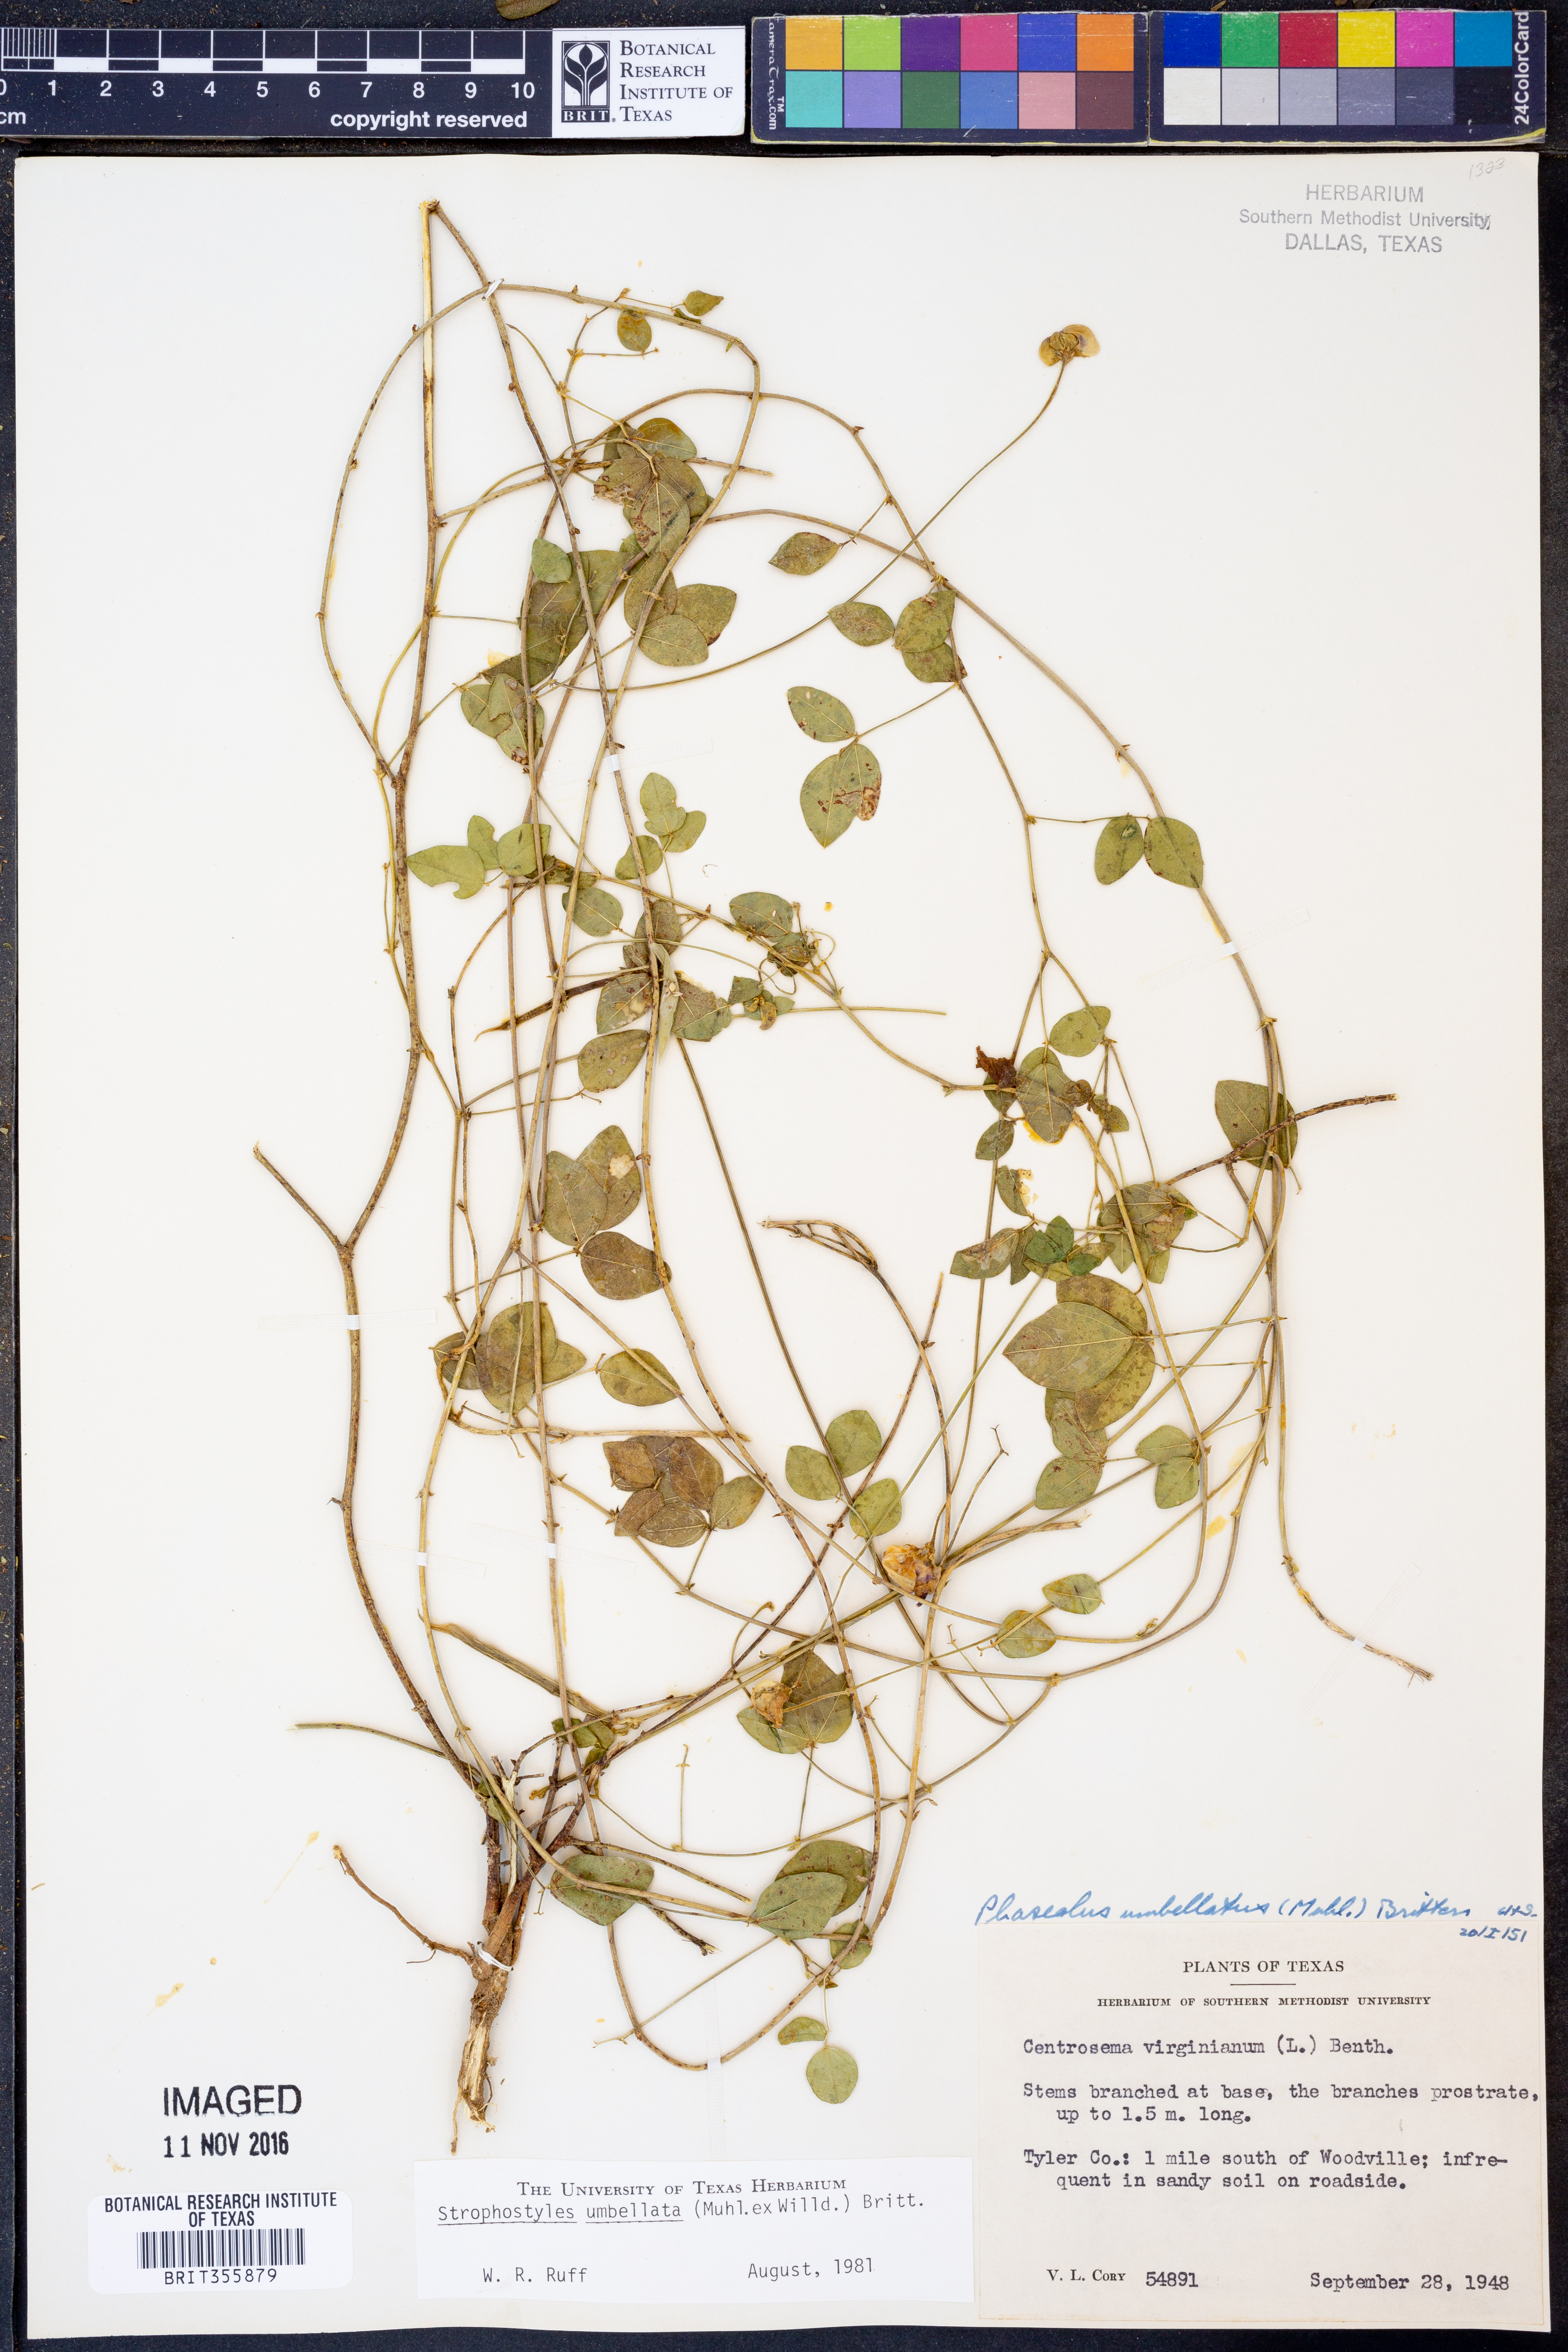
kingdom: Plantae
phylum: Tracheophyta
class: Magnoliopsida
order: Fabales
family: Fabaceae
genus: Strophostyles
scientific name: Strophostyles umbellata
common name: Perennial wild bean
